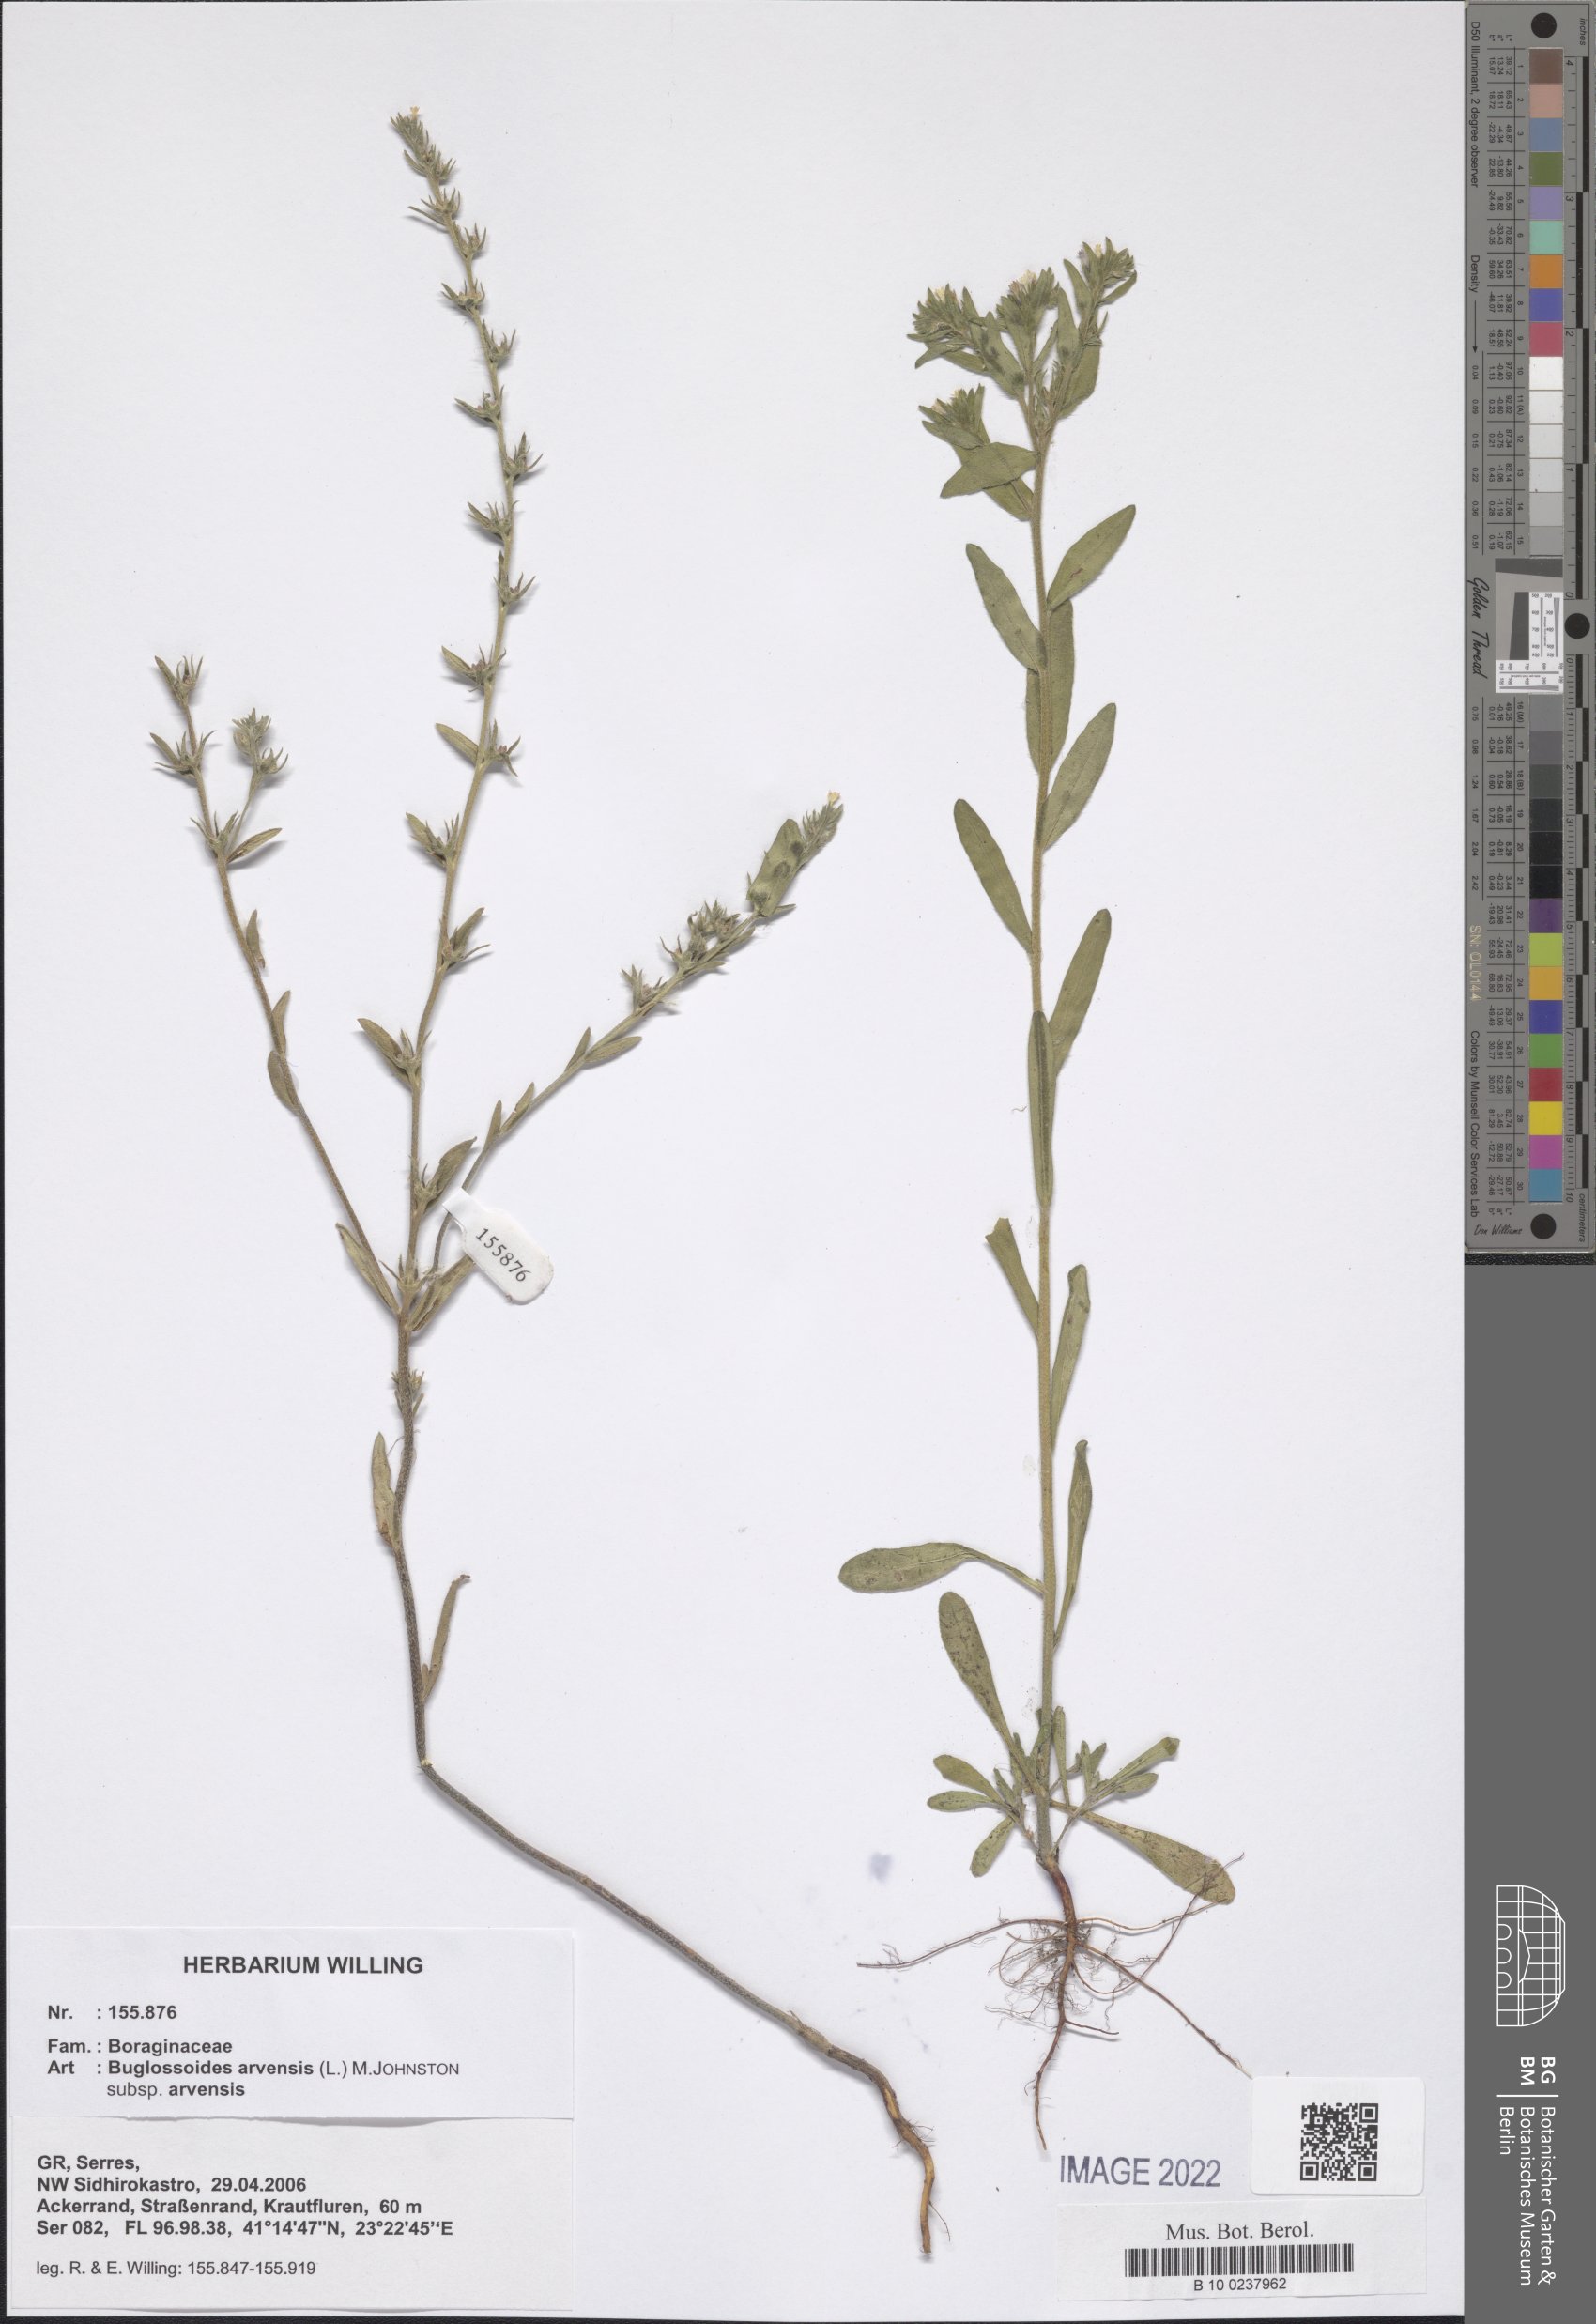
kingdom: Plantae
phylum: Tracheophyta
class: Magnoliopsida
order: Boraginales
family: Boraginaceae
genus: Buglossoides
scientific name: Buglossoides arvensis
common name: Corn gromwell
